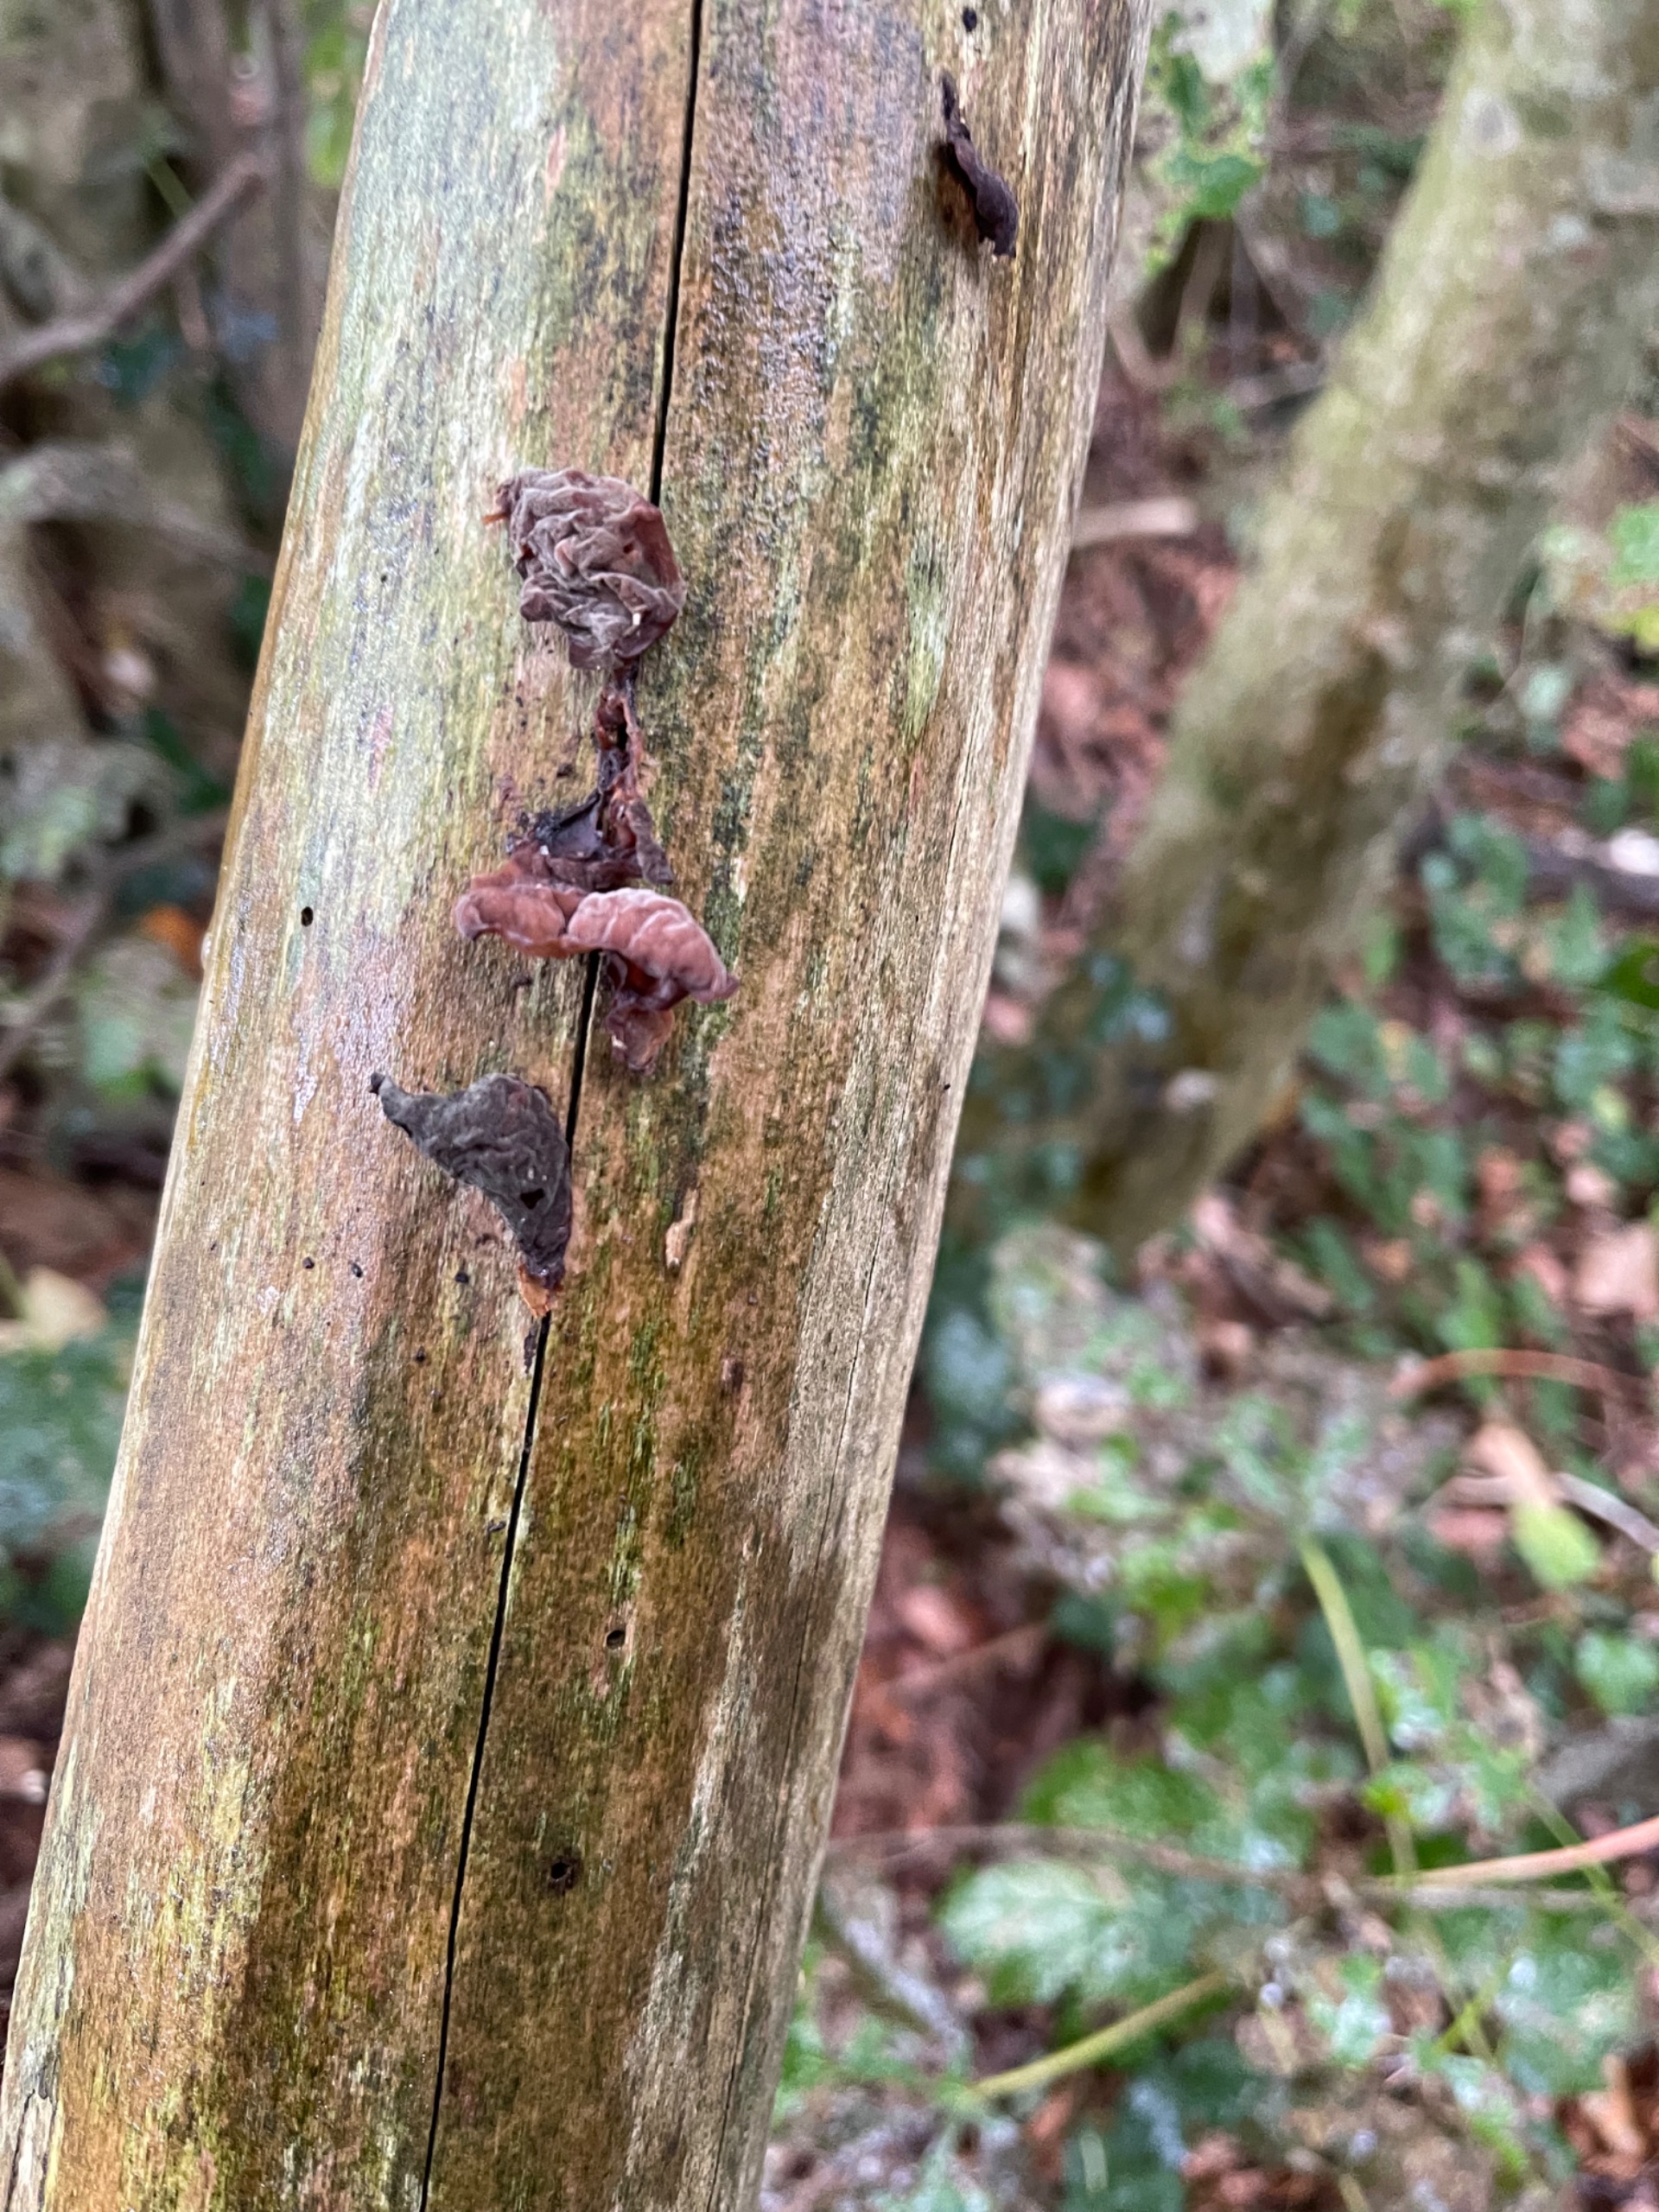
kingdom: Fungi
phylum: Basidiomycota
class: Agaricomycetes
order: Auriculariales
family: Auriculariaceae
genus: Auricularia
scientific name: Auricularia auricula-judae
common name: Almindelig judasøre
